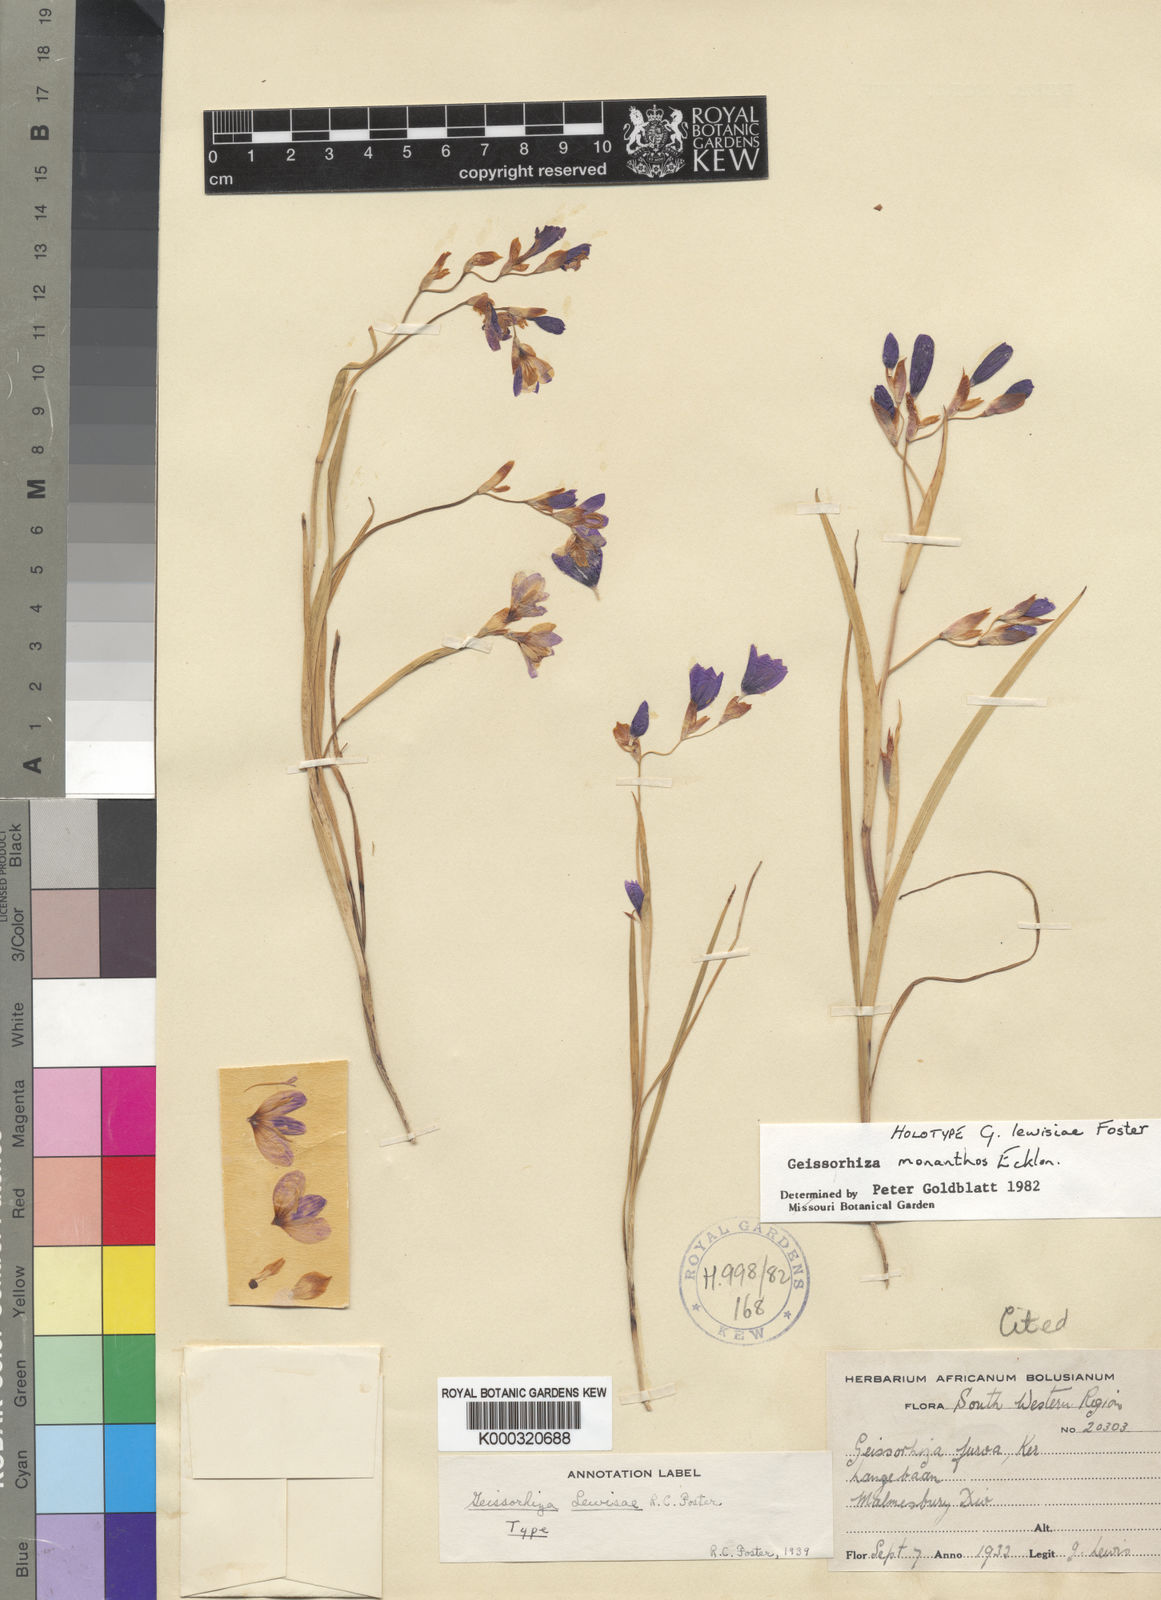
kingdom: Plantae
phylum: Tracheophyta
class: Liliopsida
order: Asparagales
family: Iridaceae
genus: Geissorhiza
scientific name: Geissorhiza monanthos
